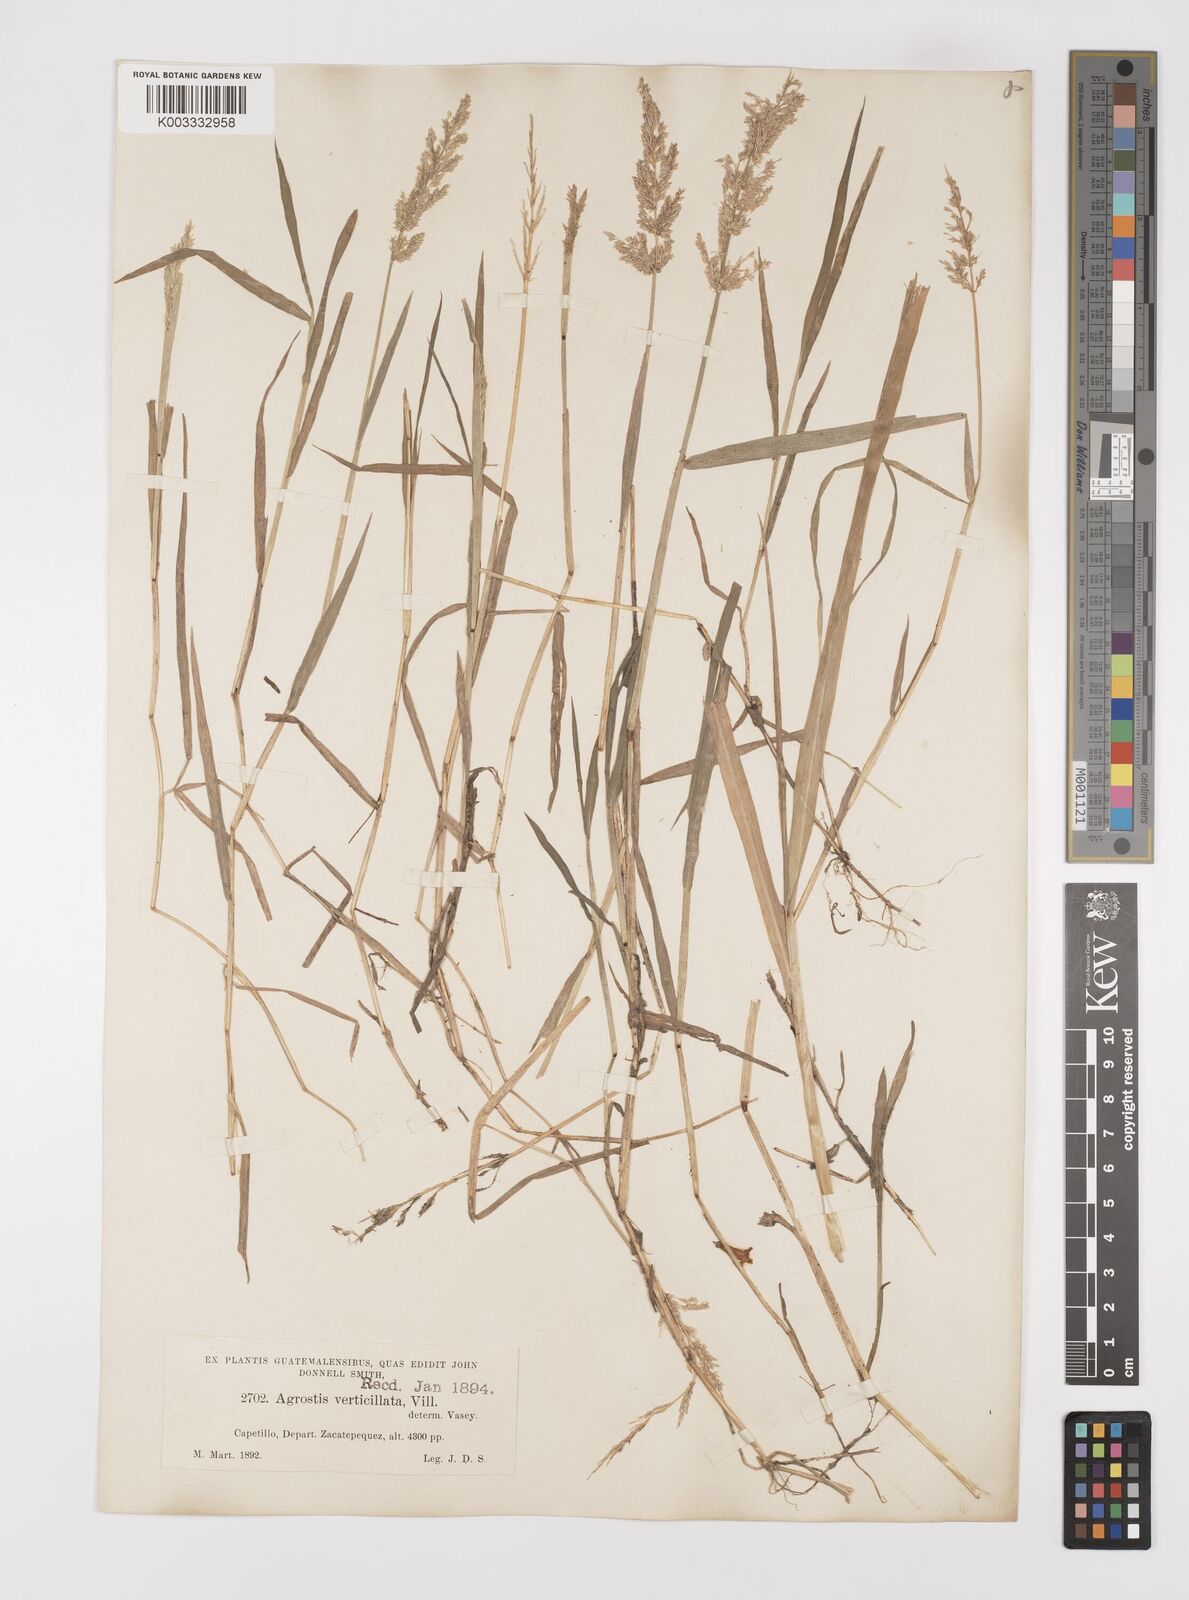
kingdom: Plantae
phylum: Tracheophyta
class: Liliopsida
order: Poales
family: Poaceae
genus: Polypogon
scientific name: Polypogon viridis
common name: Water bent
